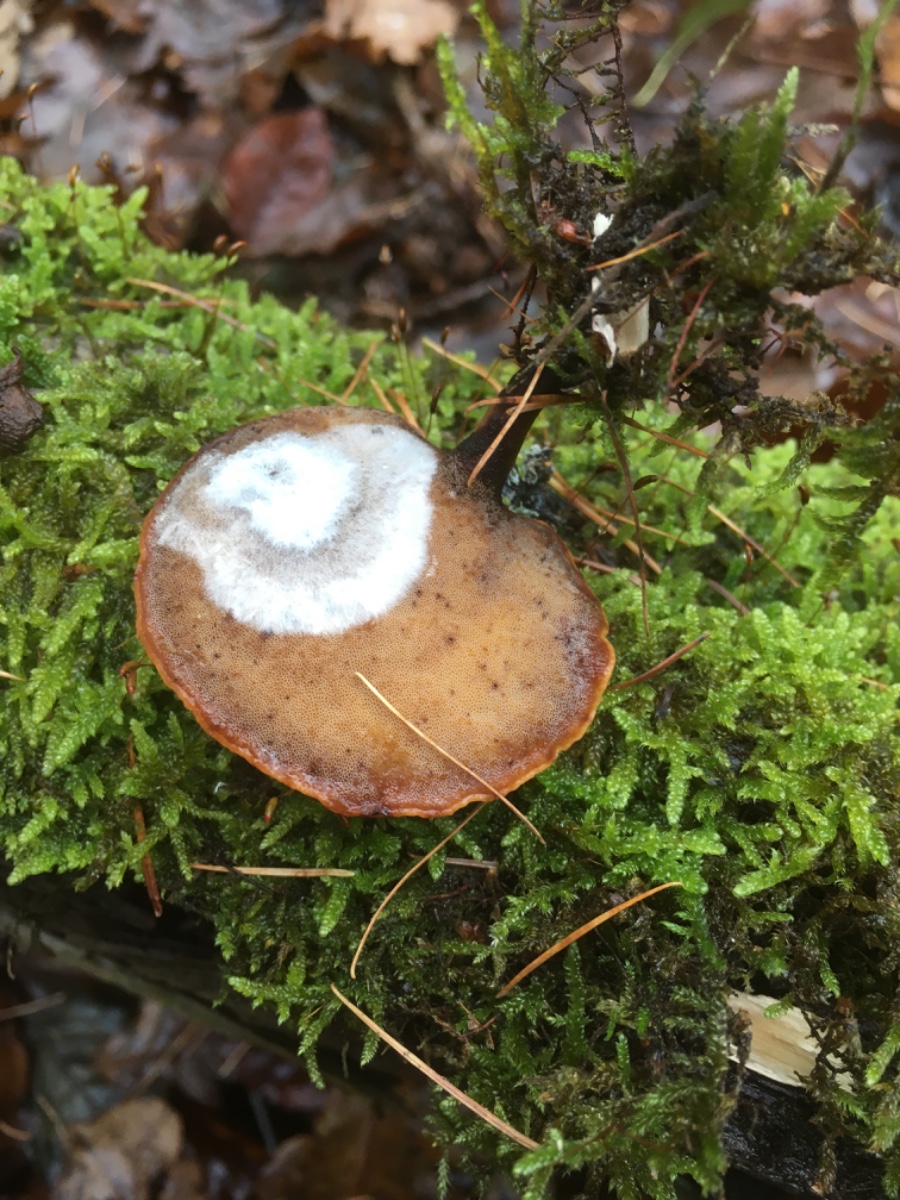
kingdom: Fungi
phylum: Basidiomycota
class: Agaricomycetes
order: Polyporales
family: Polyporaceae
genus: Cerioporus
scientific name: Cerioporus varius
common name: foranderlig stilkporesvamp
